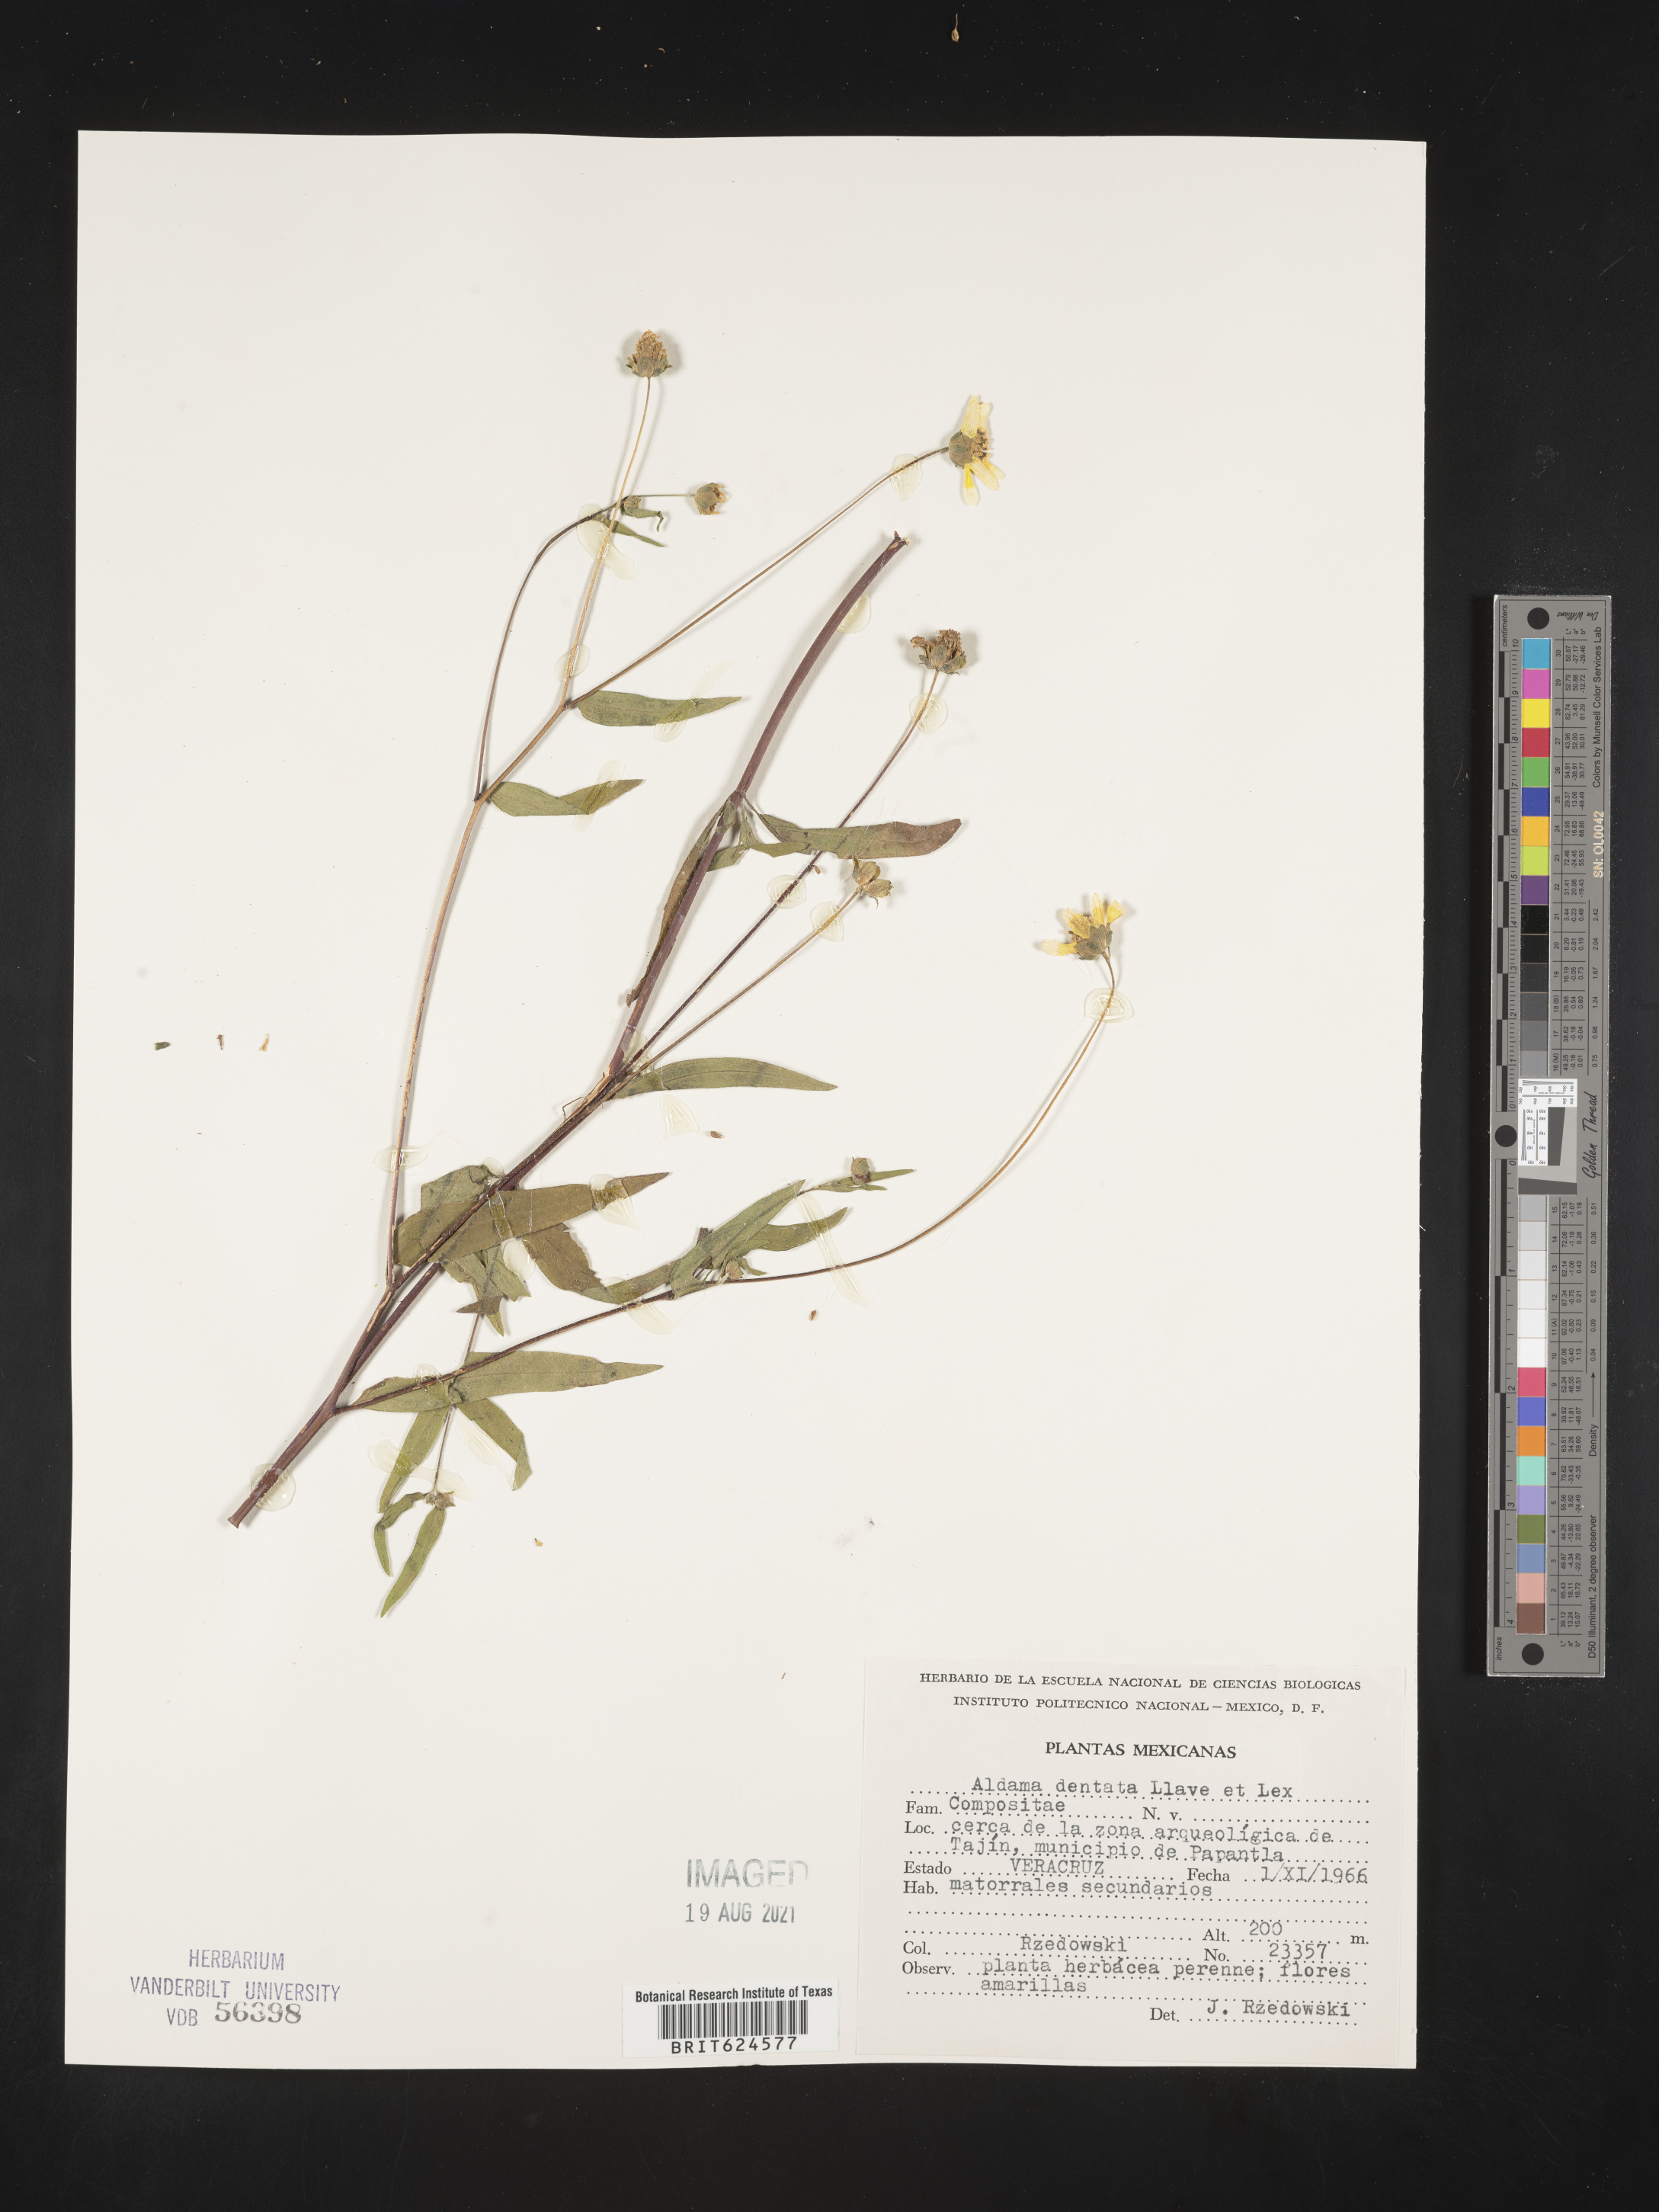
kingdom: Plantae
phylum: Tracheophyta
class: Magnoliopsida
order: Asterales
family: Asteraceae
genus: Aldama
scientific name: Aldama
